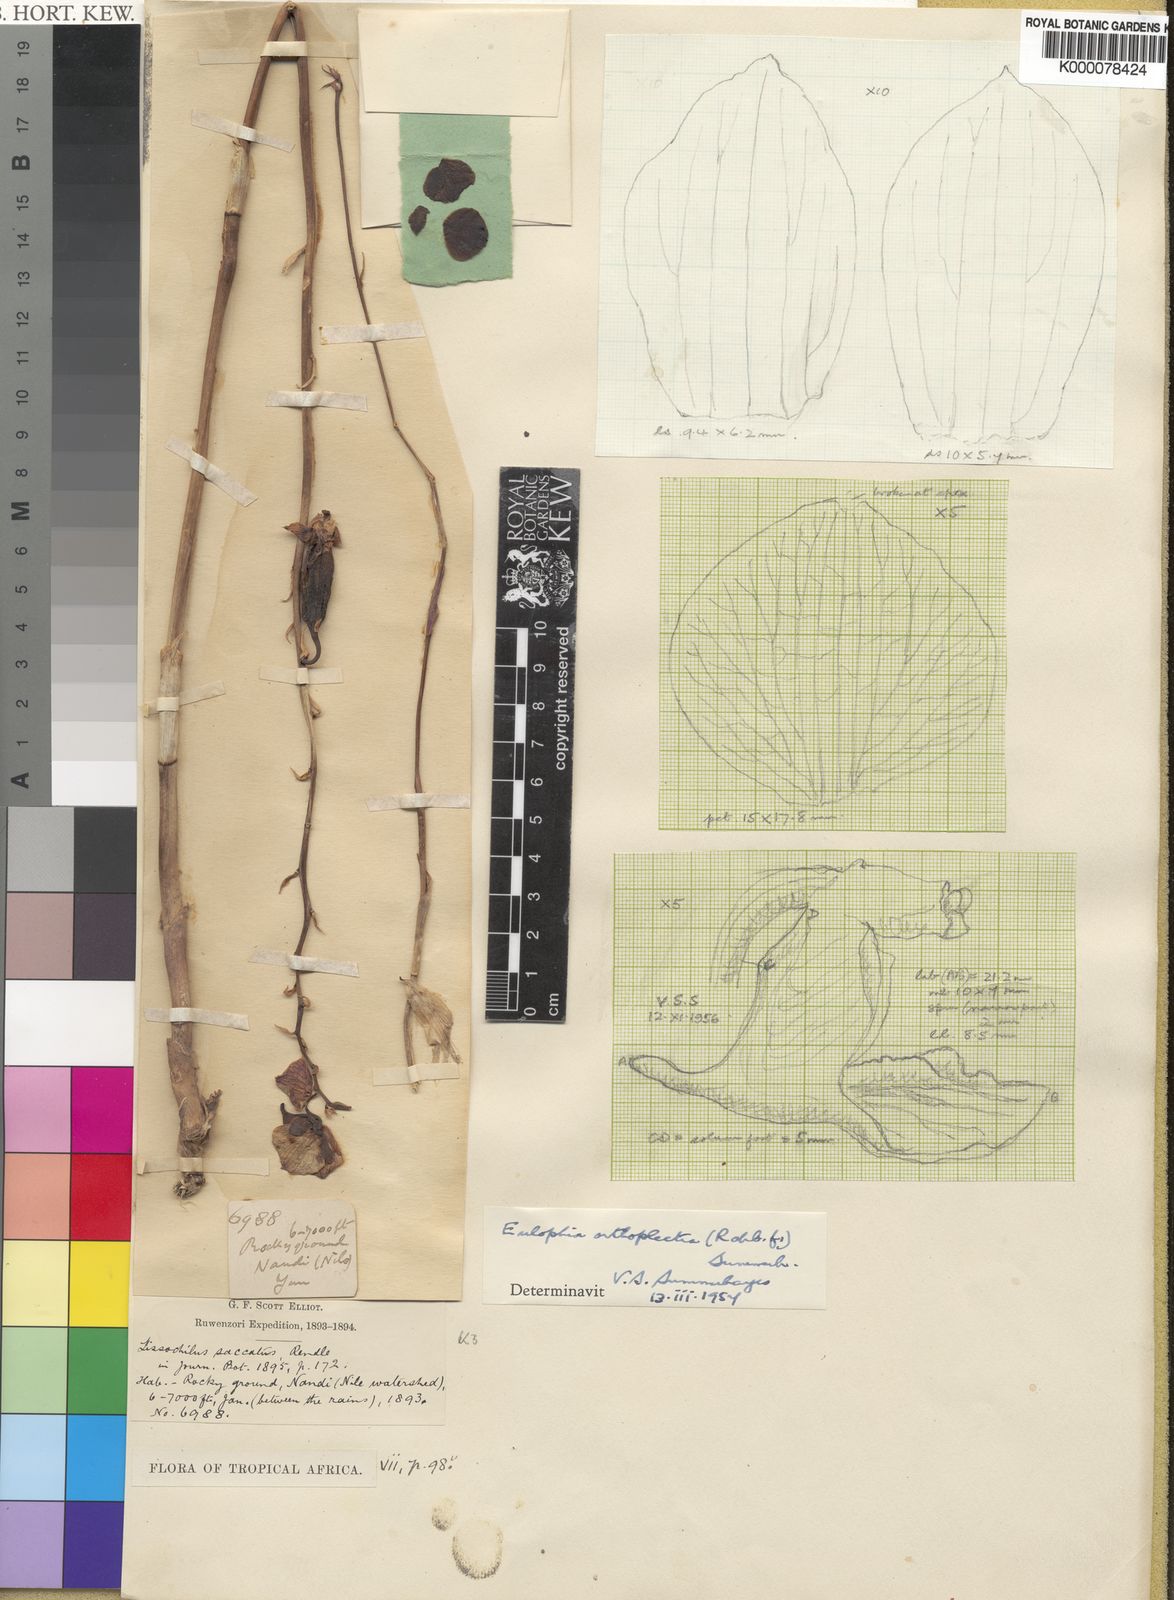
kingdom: Plantae
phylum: Tracheophyta
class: Liliopsida
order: Asparagales
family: Orchidaceae
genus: Eulophia
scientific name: Eulophia orthoplectra
